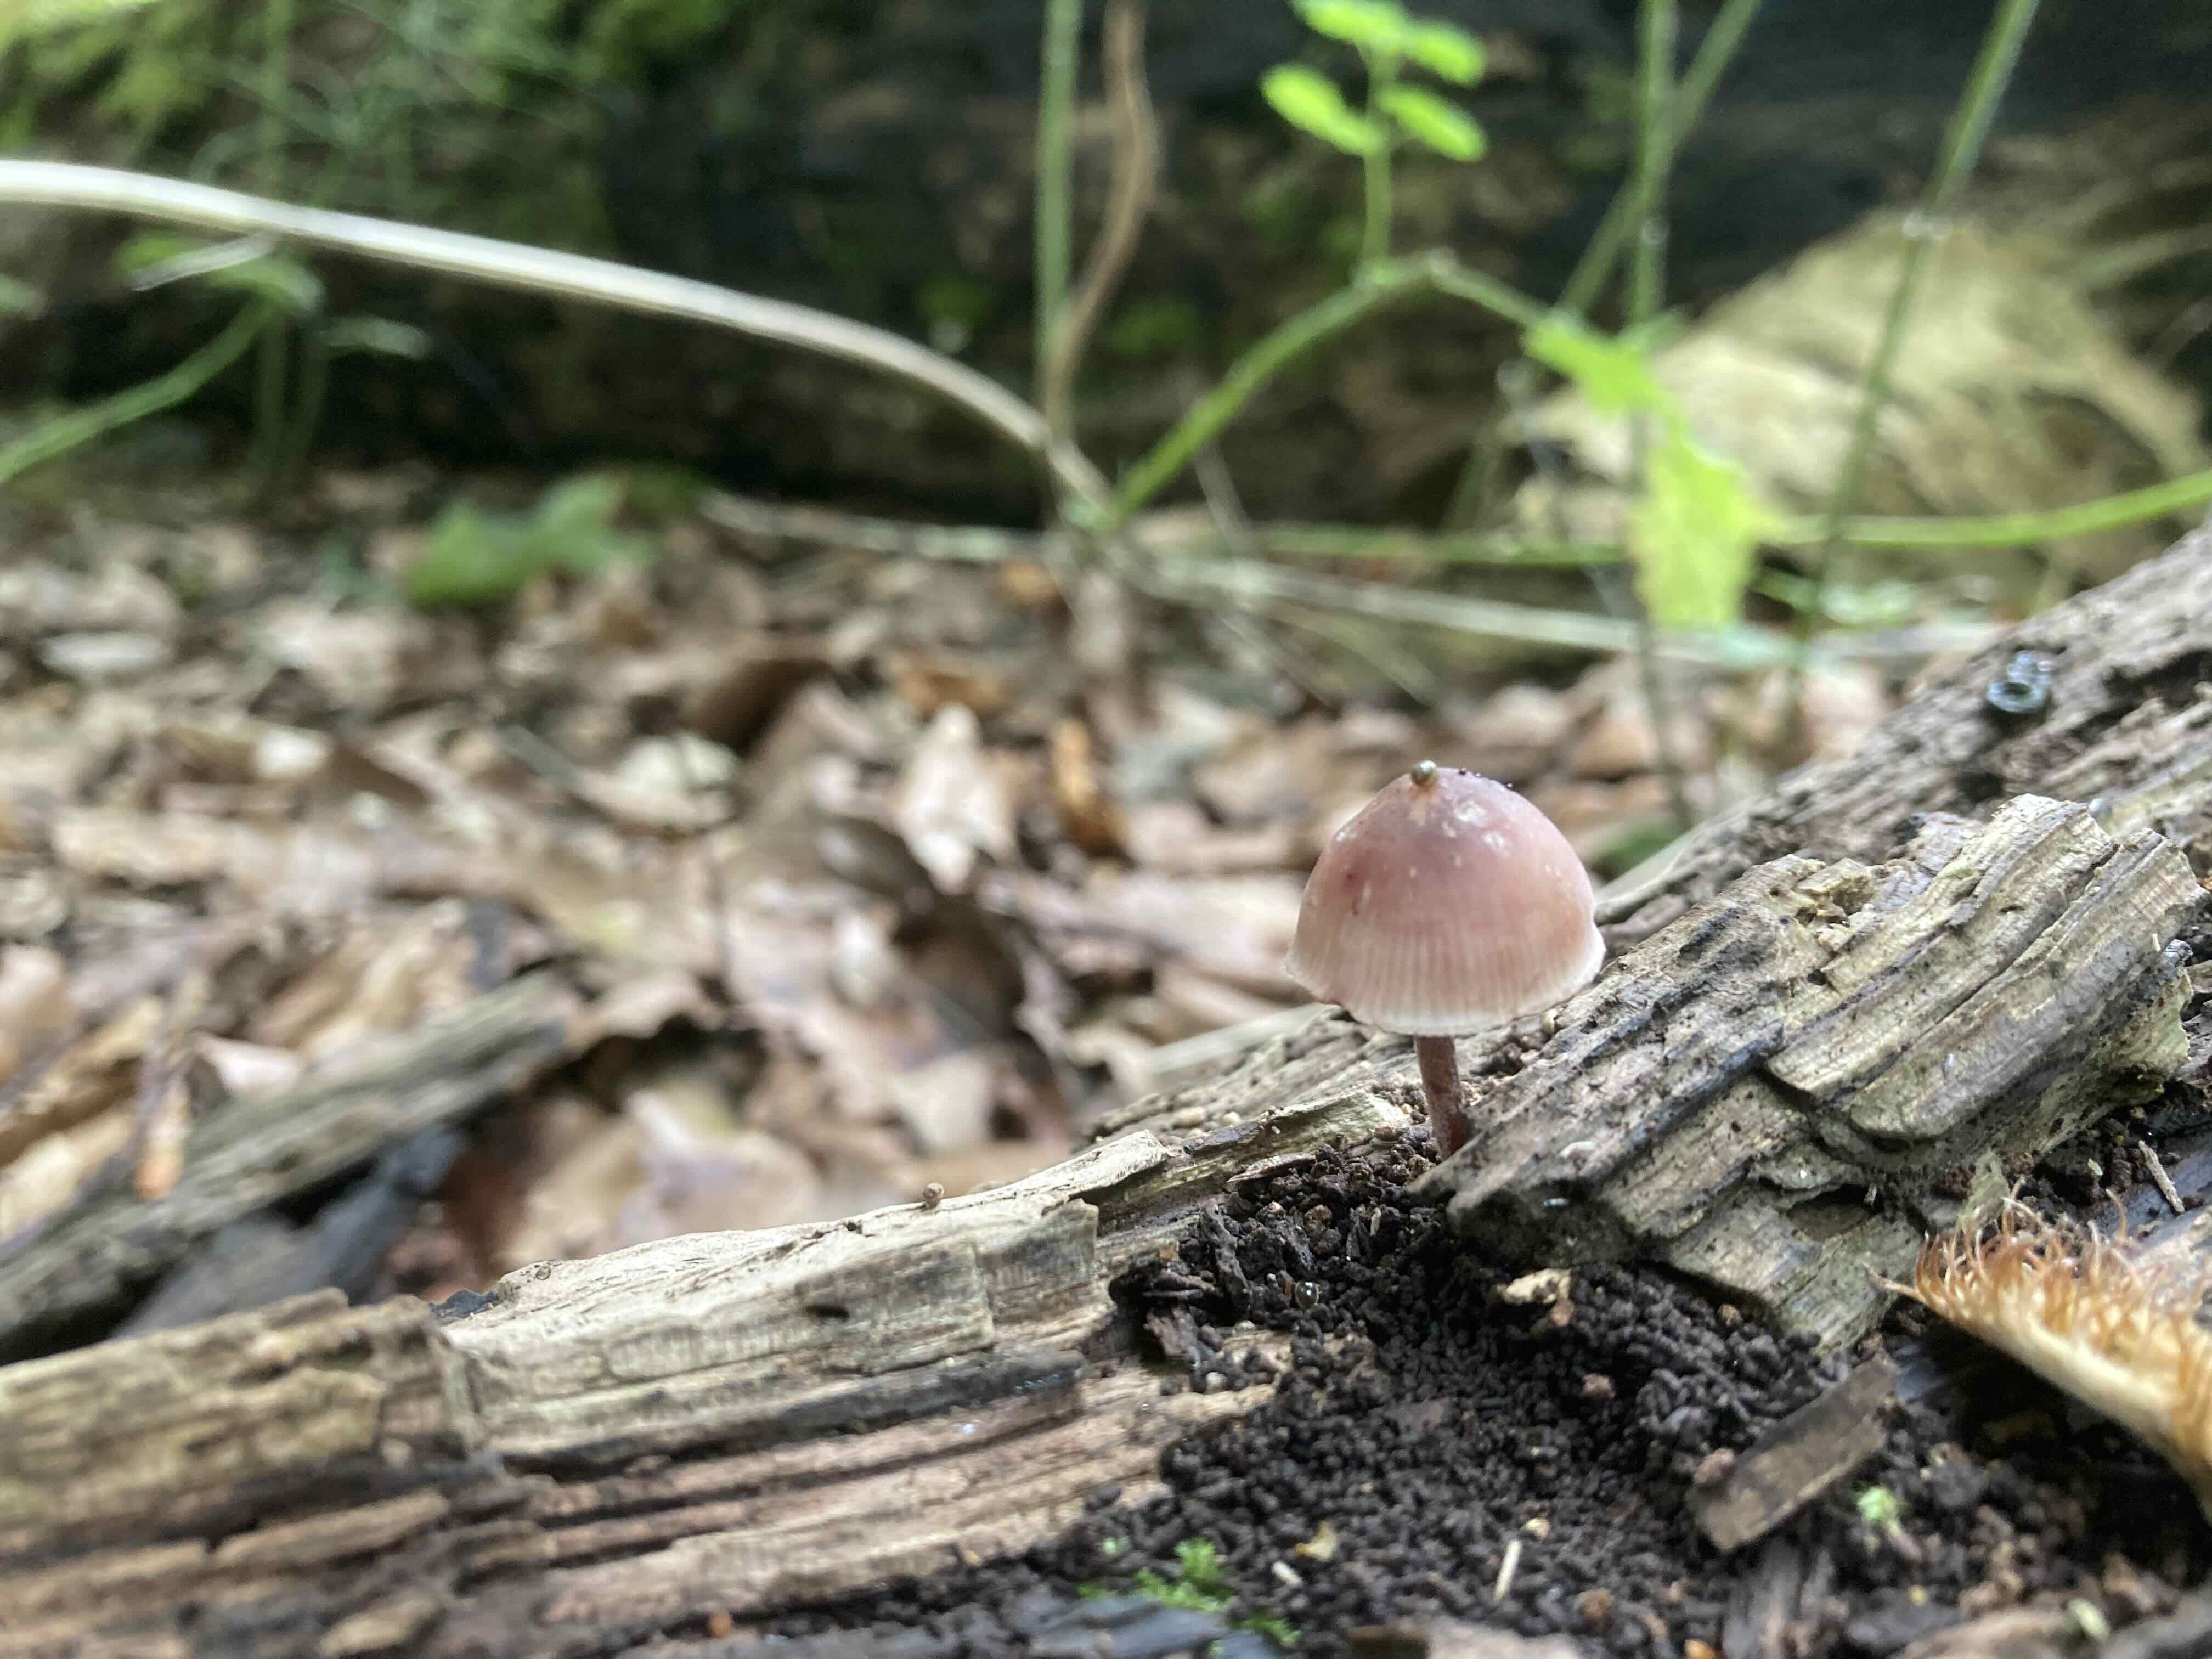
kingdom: Fungi
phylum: Basidiomycota
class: Agaricomycetes
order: Agaricales
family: Mycenaceae
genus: Mycena
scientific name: Mycena haematopus
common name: blødende huesvamp
